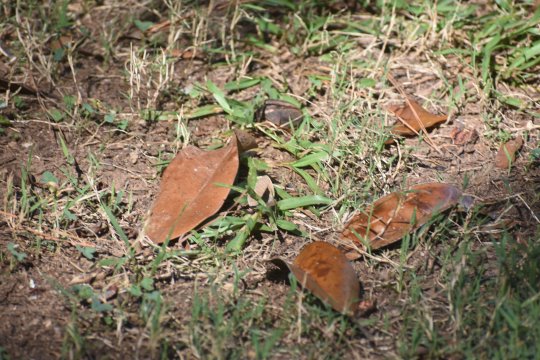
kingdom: Animalia
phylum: Arthropoda
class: Insecta
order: Lepidoptera
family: Nymphalidae
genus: Hermeuptychia
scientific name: Hermeuptychia hermes
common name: Carolina Satyr
